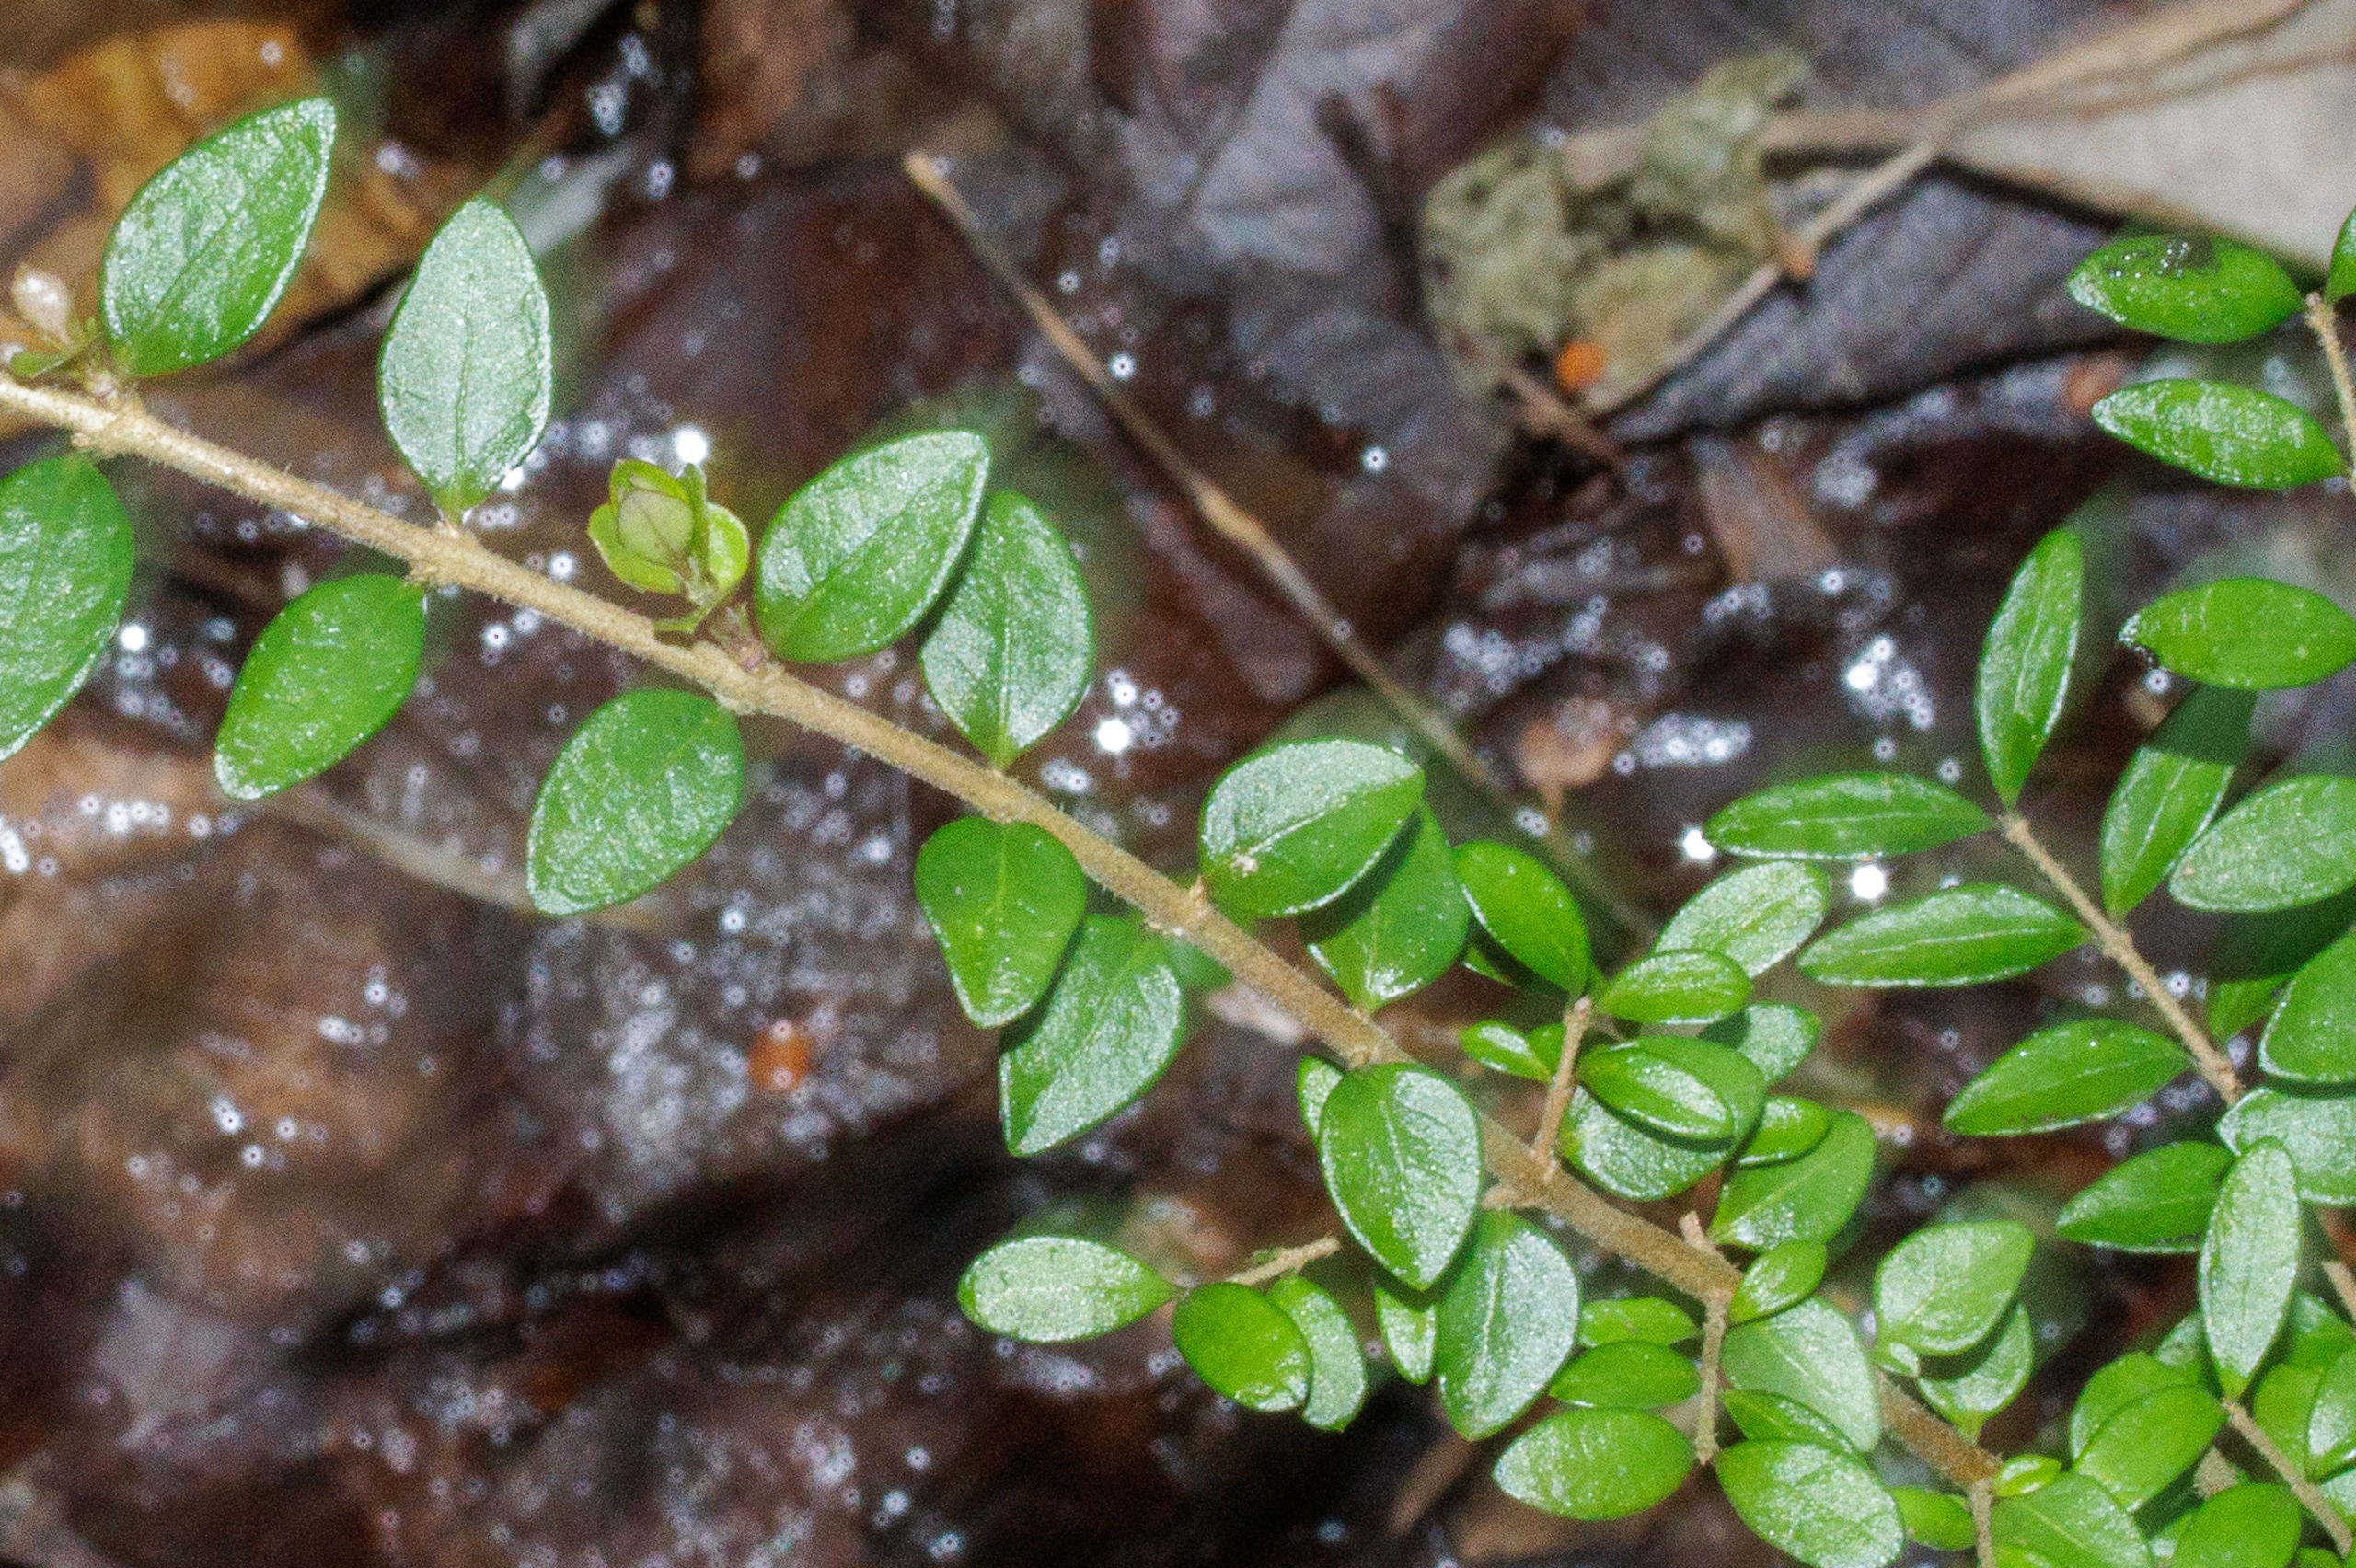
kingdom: Plantae
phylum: Tracheophyta
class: Magnoliopsida
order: Dipsacales
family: Caprifoliaceae
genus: Lonicera
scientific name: Lonicera
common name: Gedebladslægten
